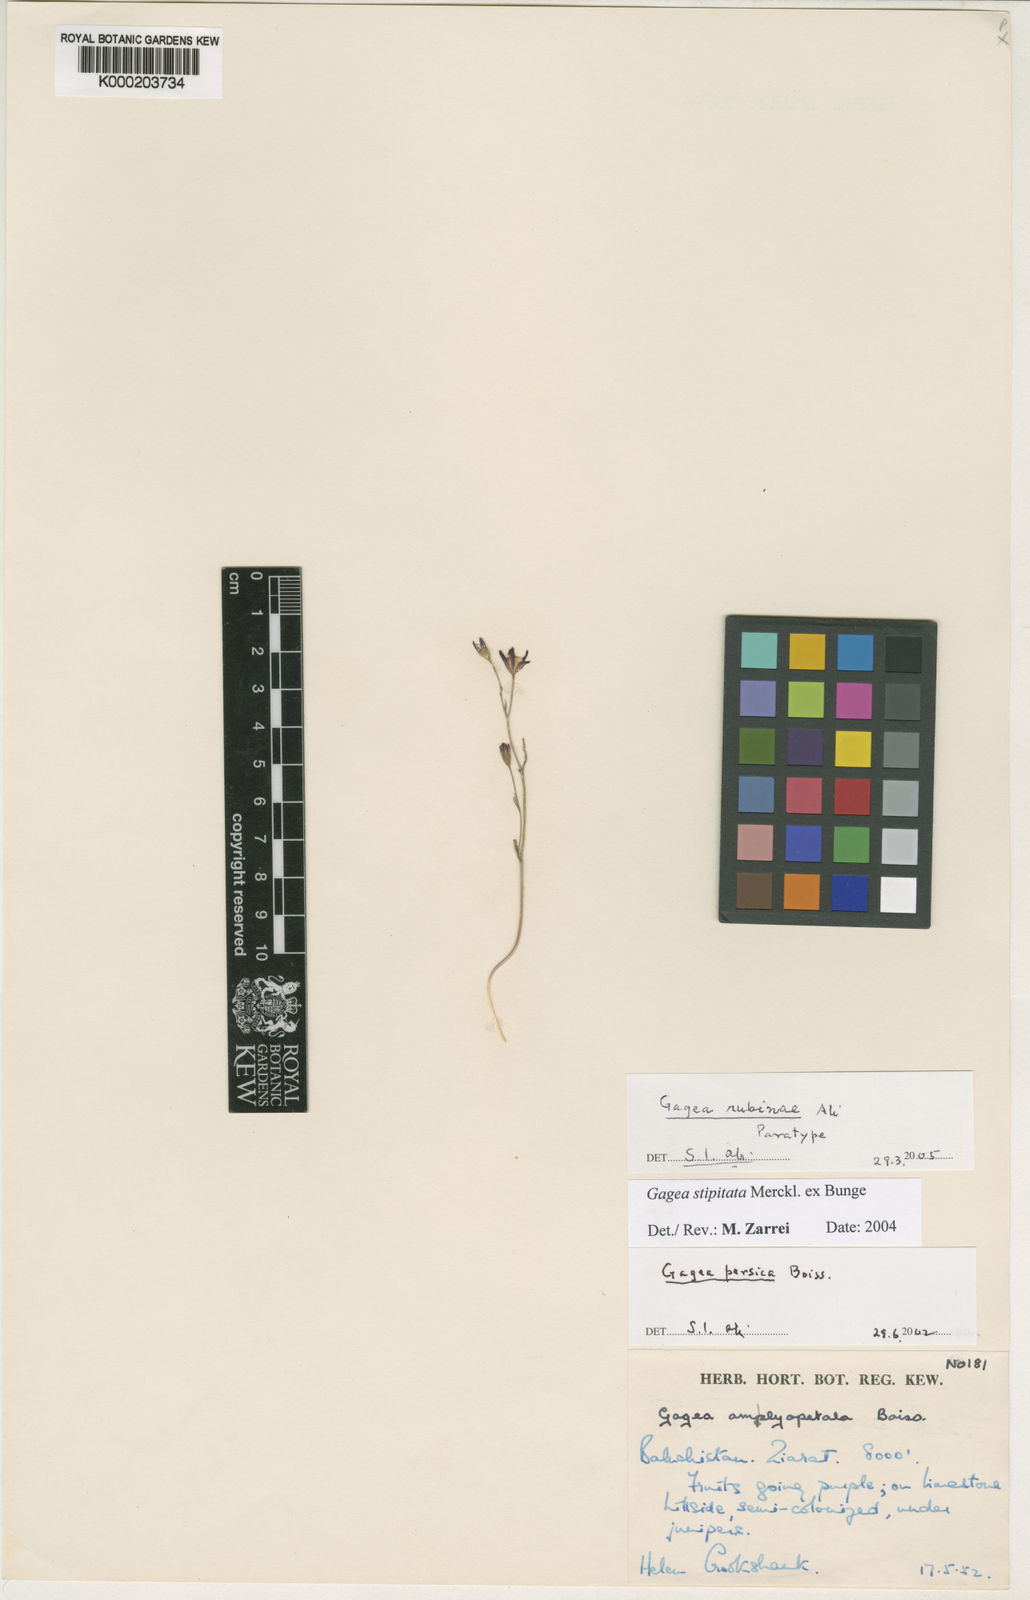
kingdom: Plantae
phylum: Tracheophyta
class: Liliopsida
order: Liliales
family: Liliaceae
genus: Gagea
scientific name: Gagea rubinae
